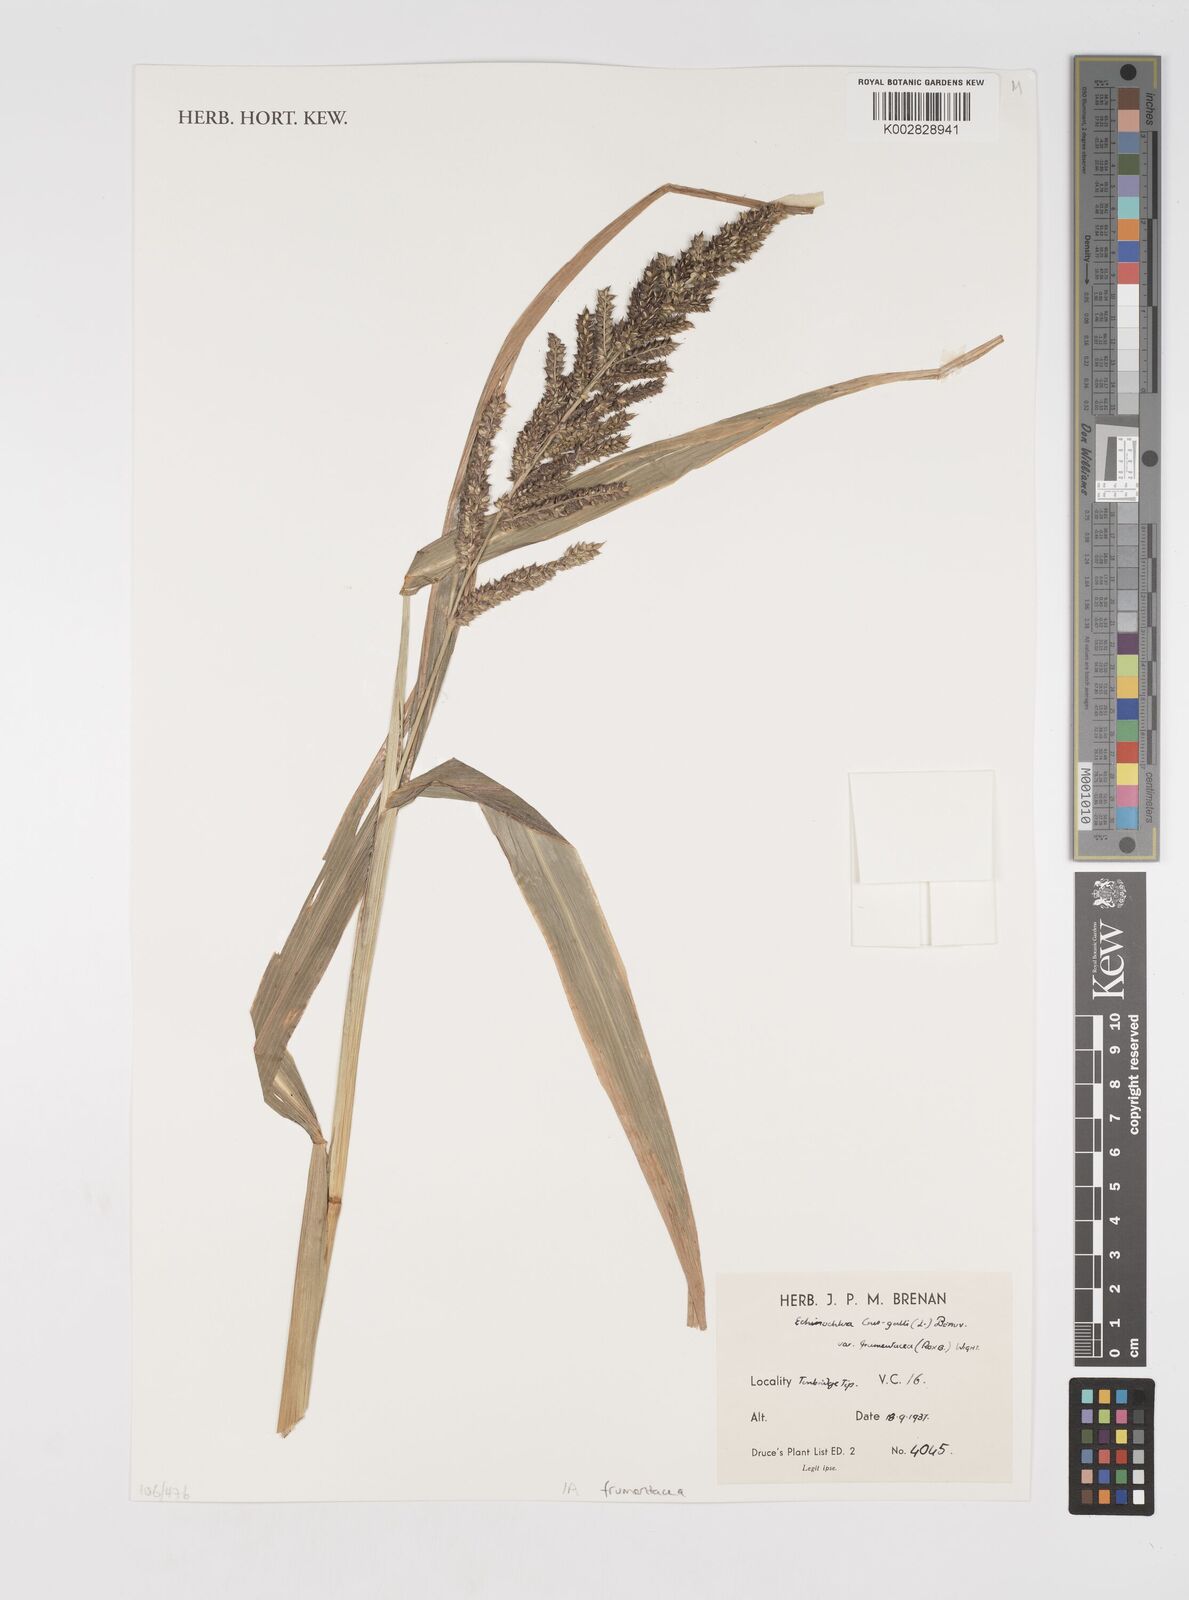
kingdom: Plantae
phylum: Tracheophyta
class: Liliopsida
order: Poales
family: Poaceae
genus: Echinochloa
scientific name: Echinochloa frumentacea
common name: Billion-dollar grass
